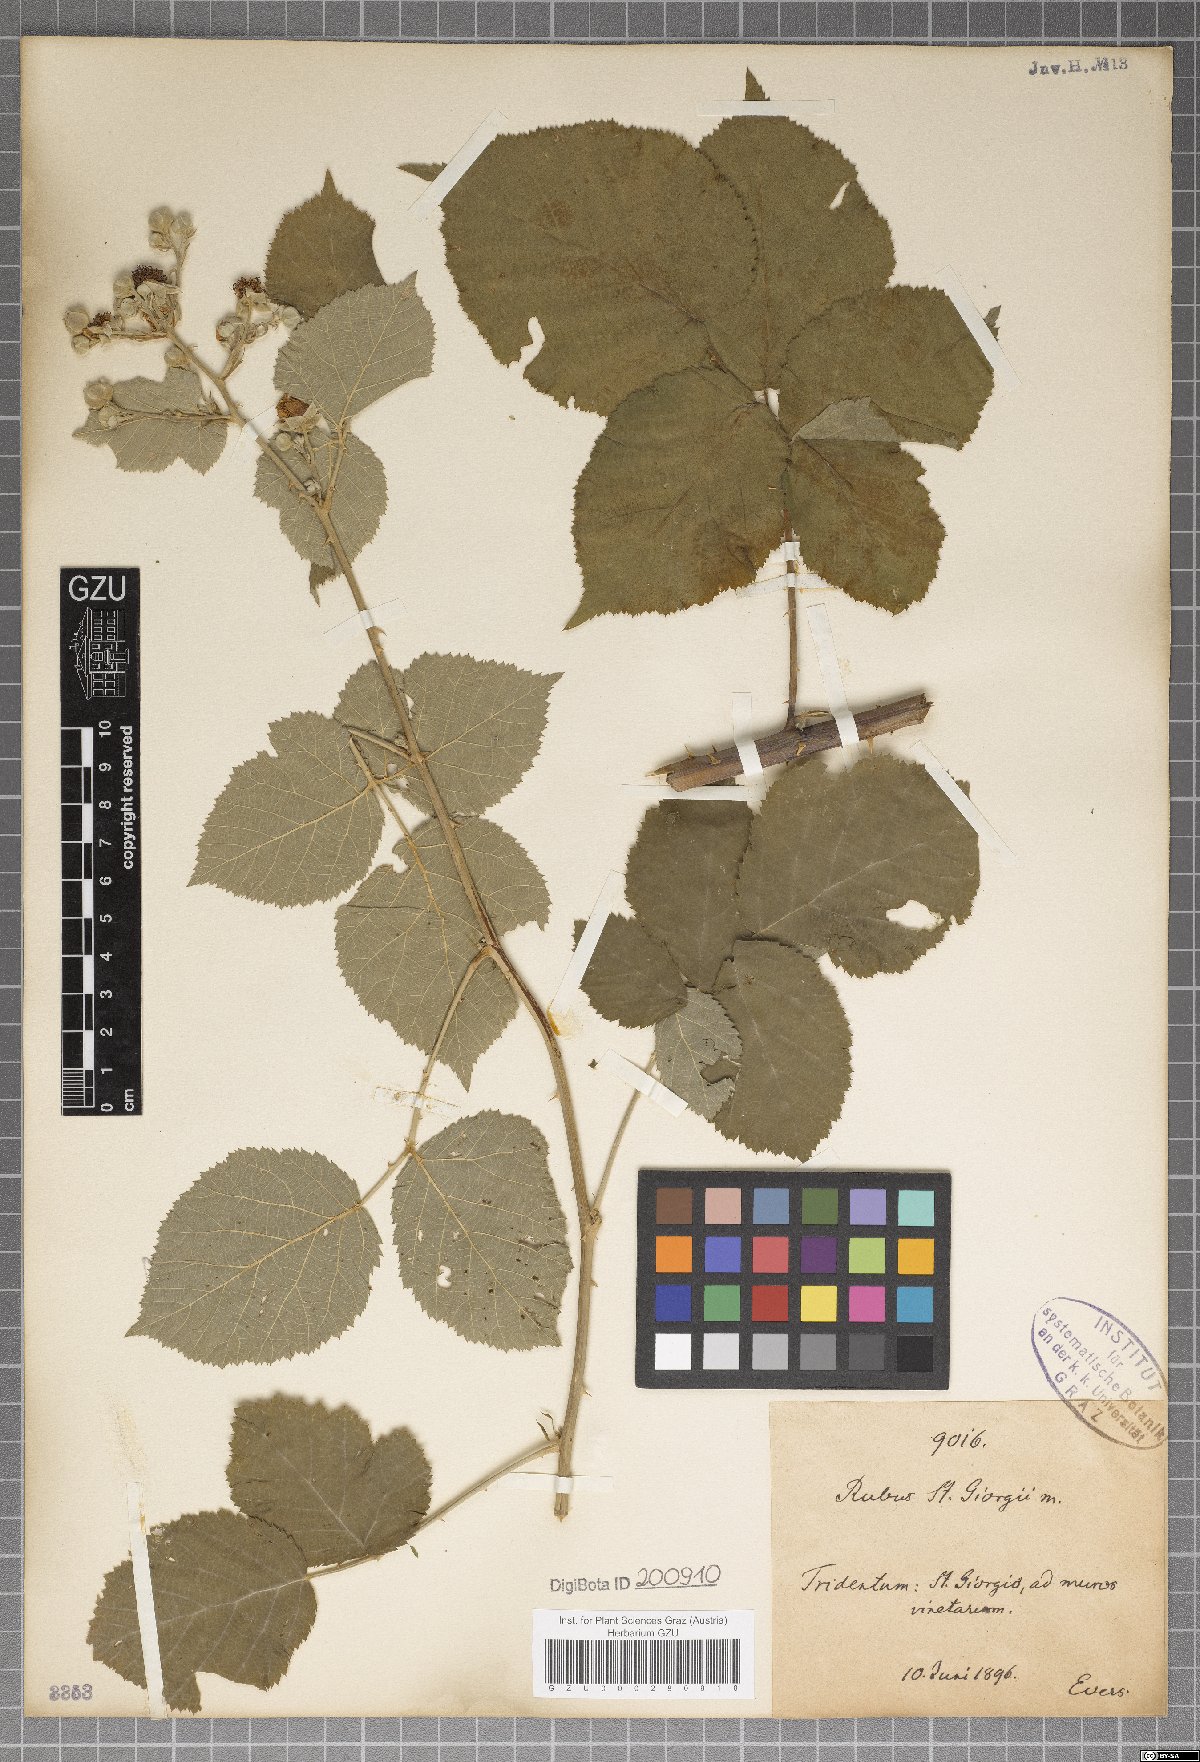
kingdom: Plantae
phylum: Tracheophyta
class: Magnoliopsida
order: Rosales
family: Rosaceae
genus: Rubus
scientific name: Rubus
